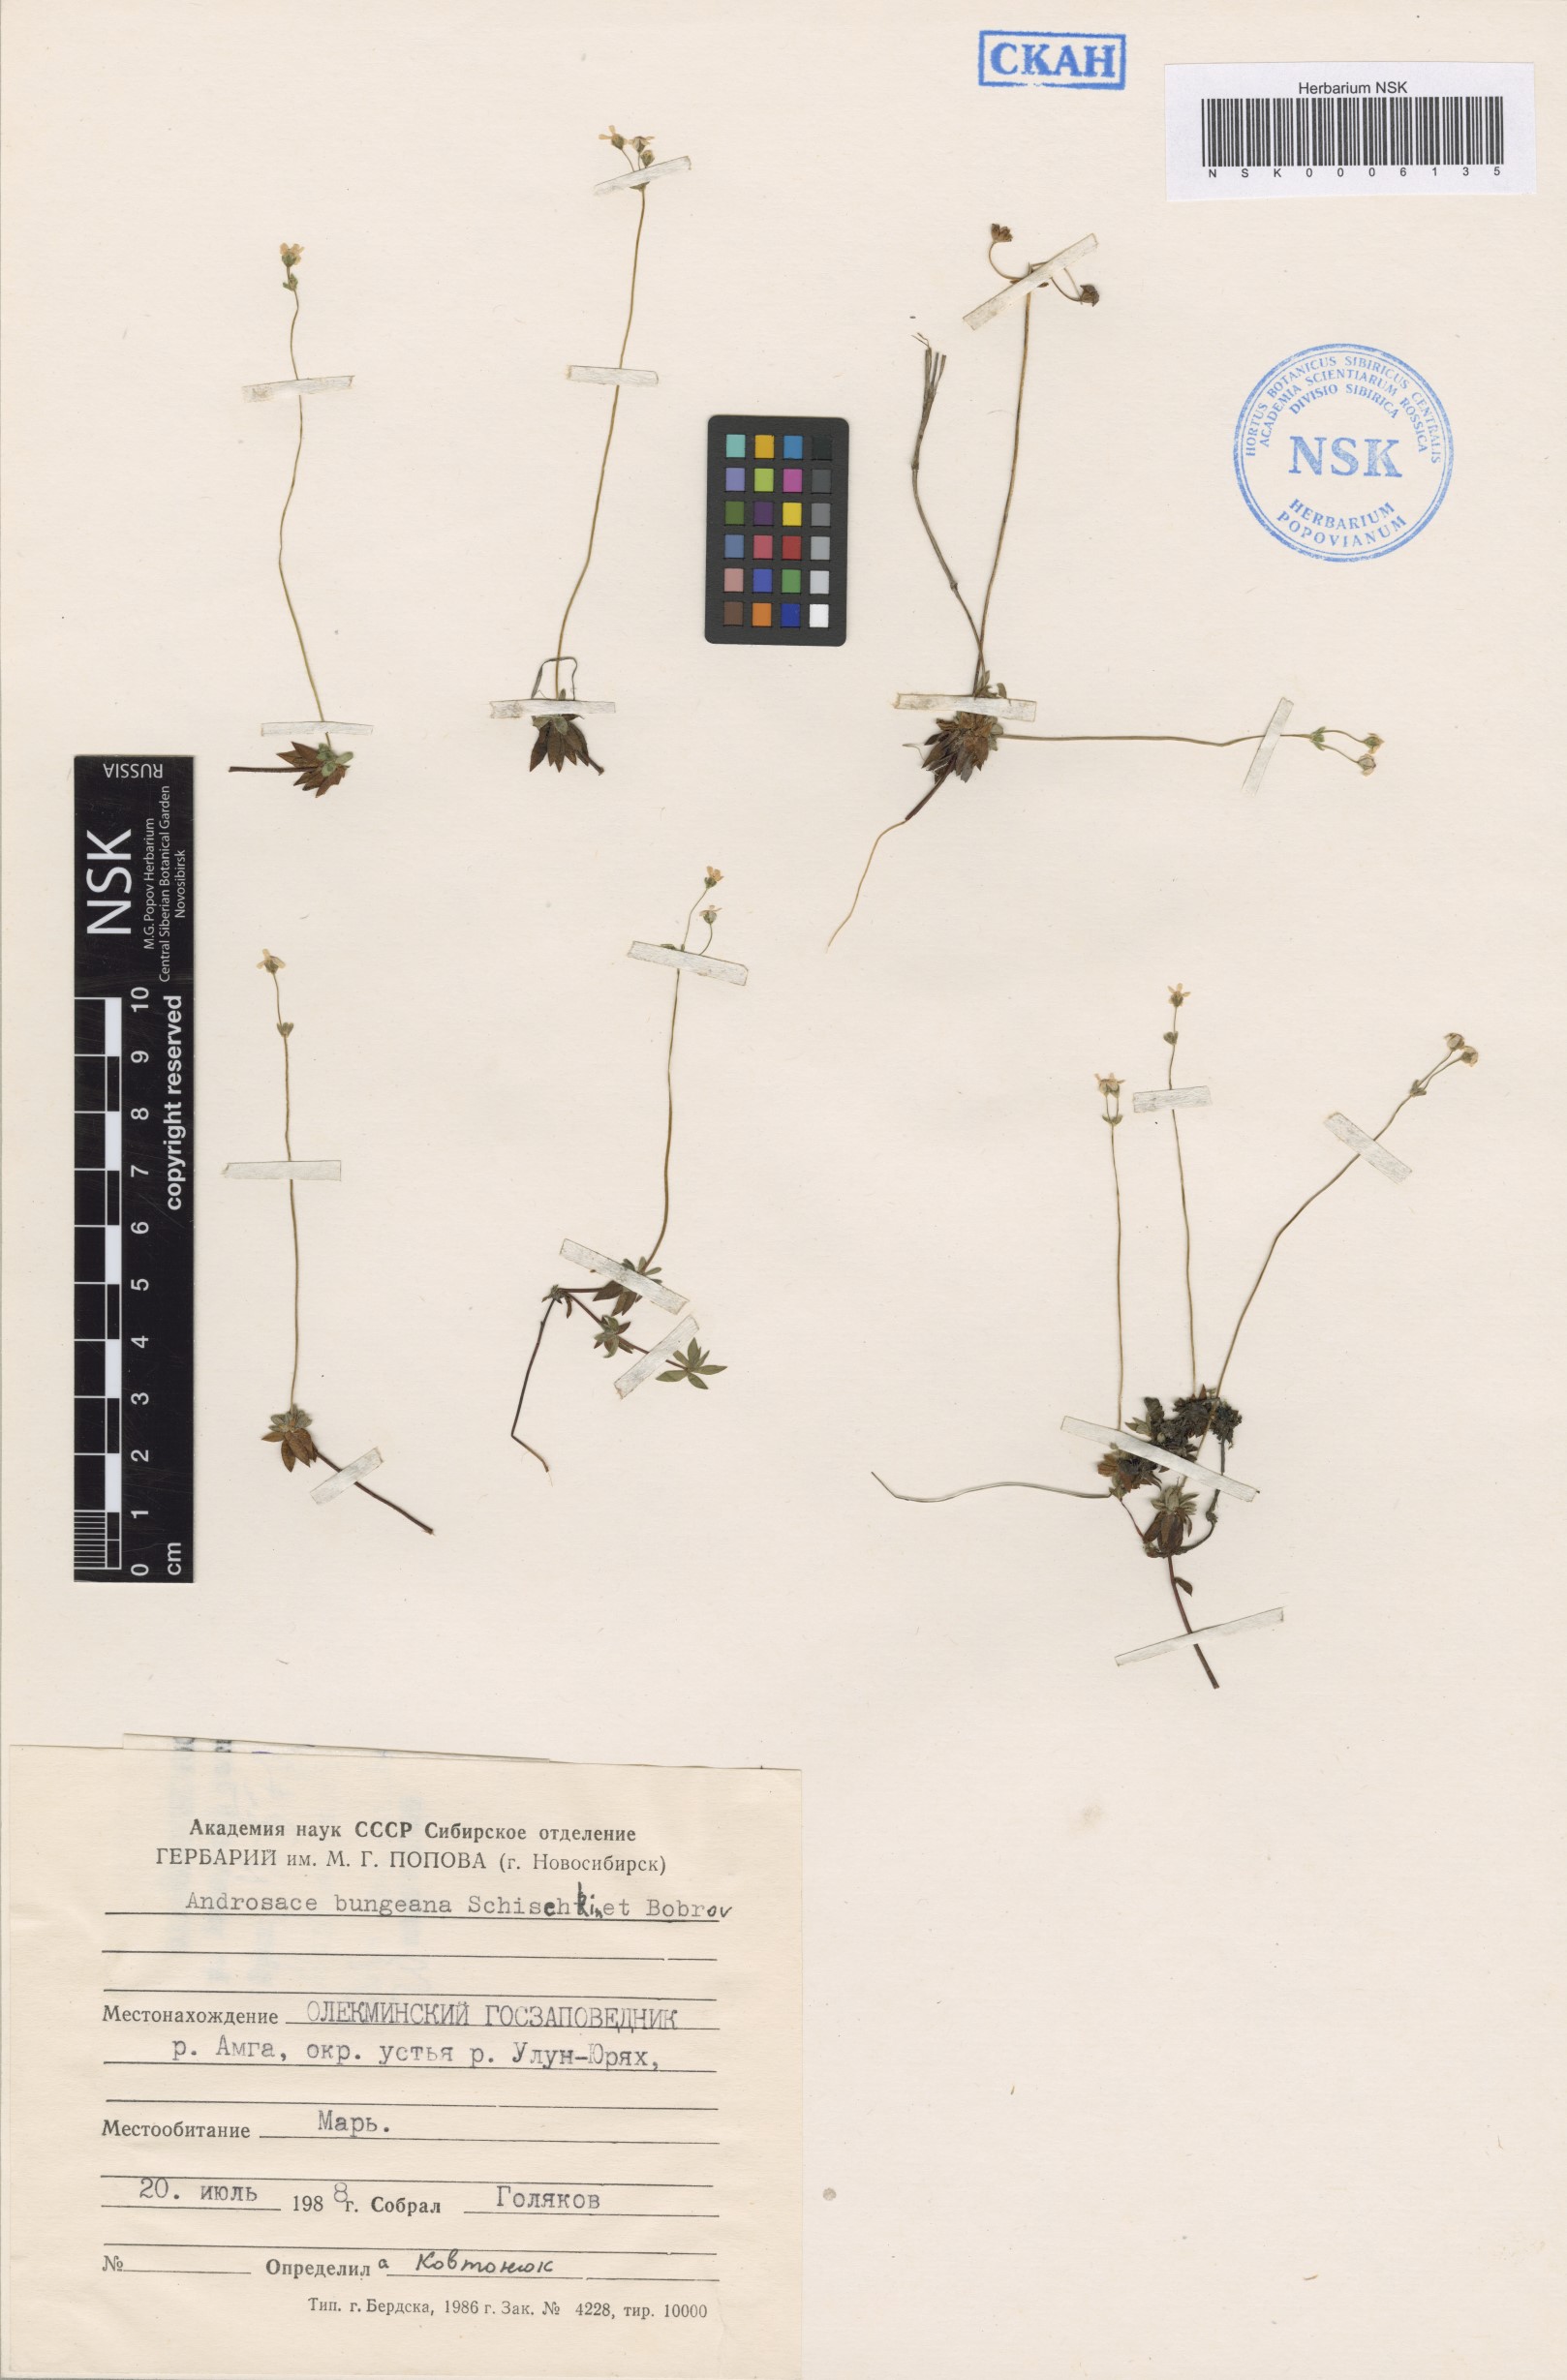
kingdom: Plantae
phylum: Tracheophyta
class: Magnoliopsida
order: Ericales
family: Primulaceae
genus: Androsace
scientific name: Androsace bungeana
